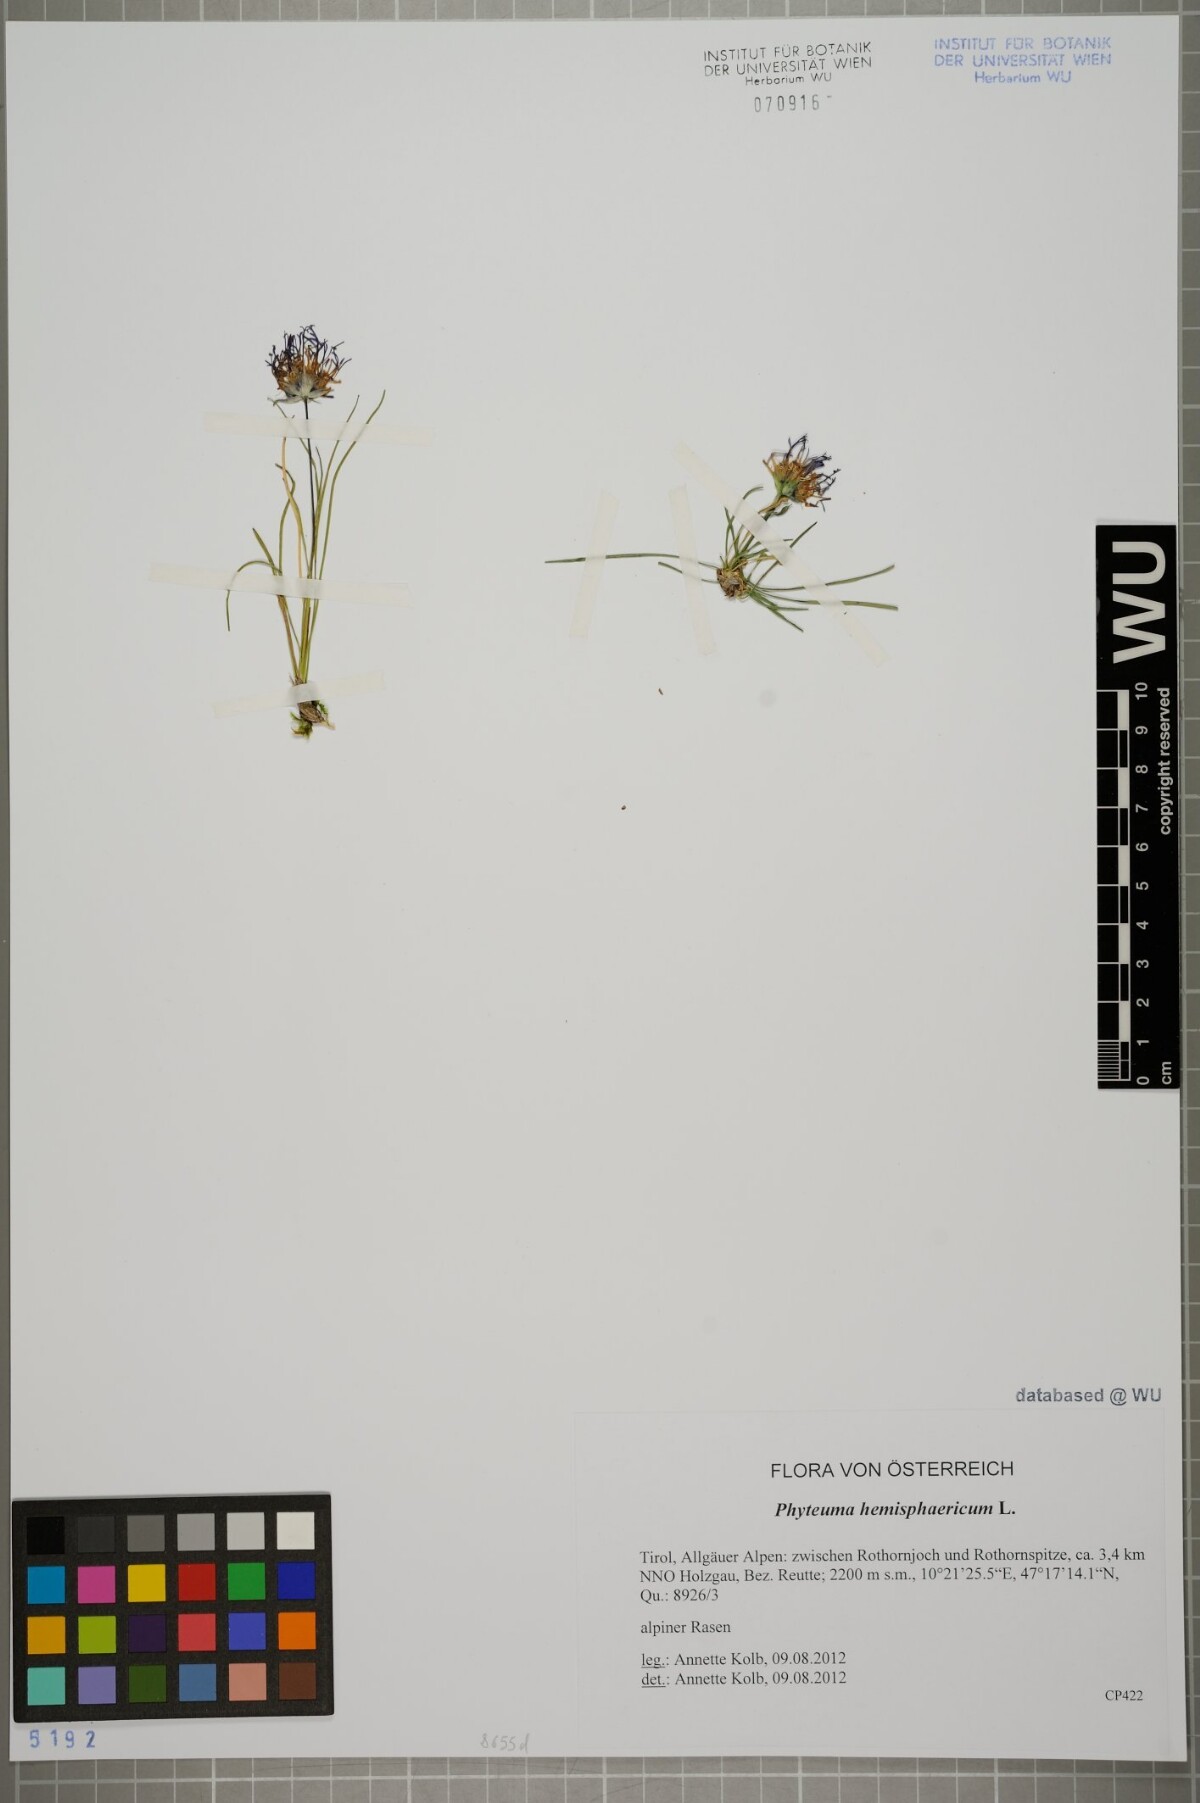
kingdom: Plantae
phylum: Tracheophyta
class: Magnoliopsida
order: Asterales
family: Campanulaceae
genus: Phyteuma
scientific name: Phyteuma hemisphaericum
